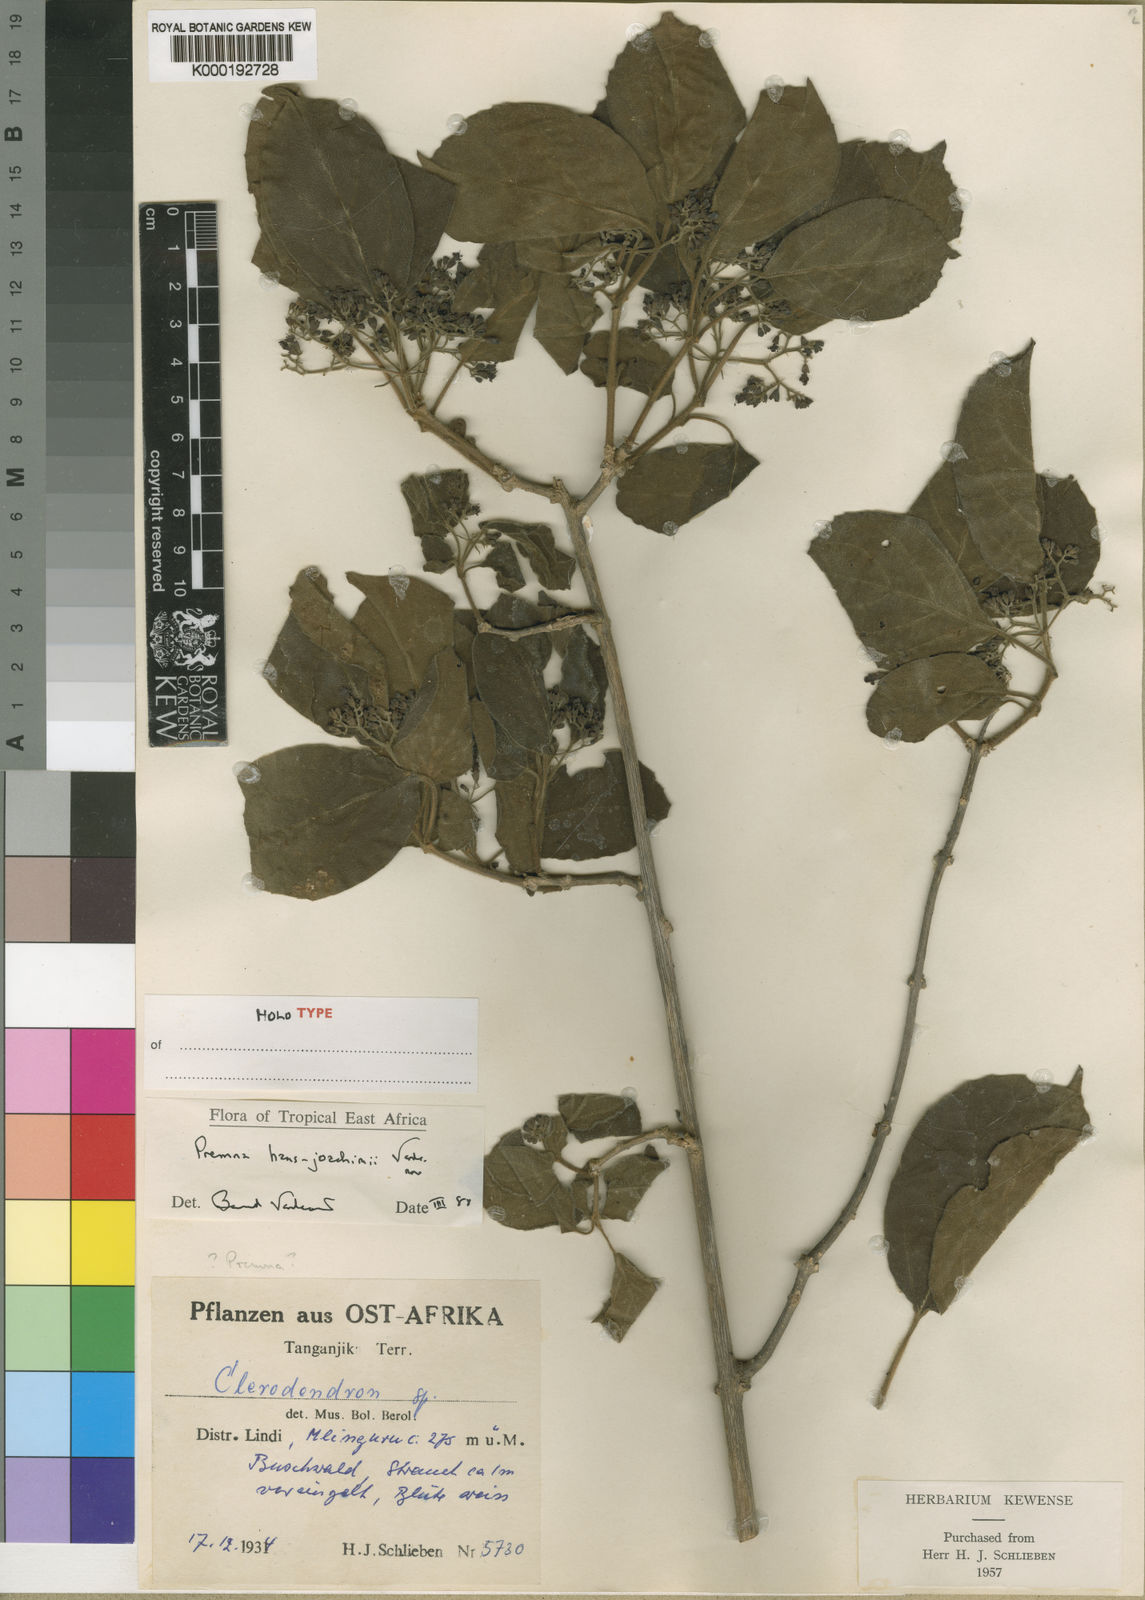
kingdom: Plantae
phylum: Tracheophyta
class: Magnoliopsida
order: Lamiales
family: Lamiaceae
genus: Premna
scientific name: Premna hans-joachimii
